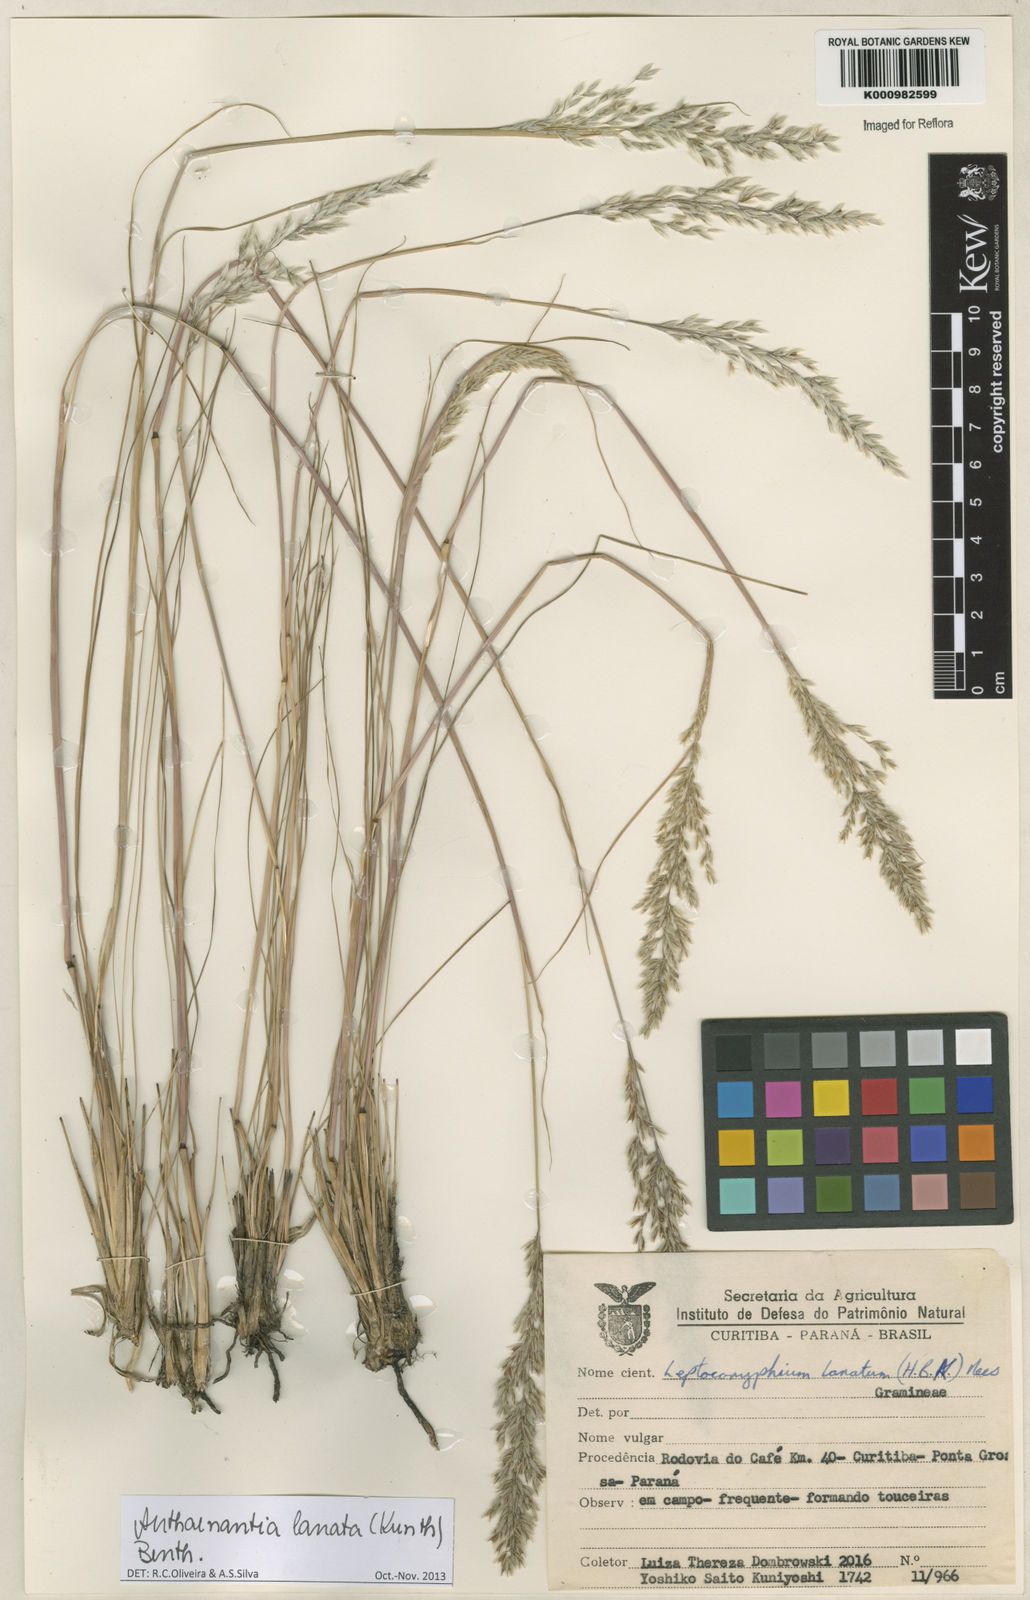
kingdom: Plantae
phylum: Tracheophyta
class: Liliopsida
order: Poales
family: Poaceae
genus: Anthenantia
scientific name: Anthenantia lanata
